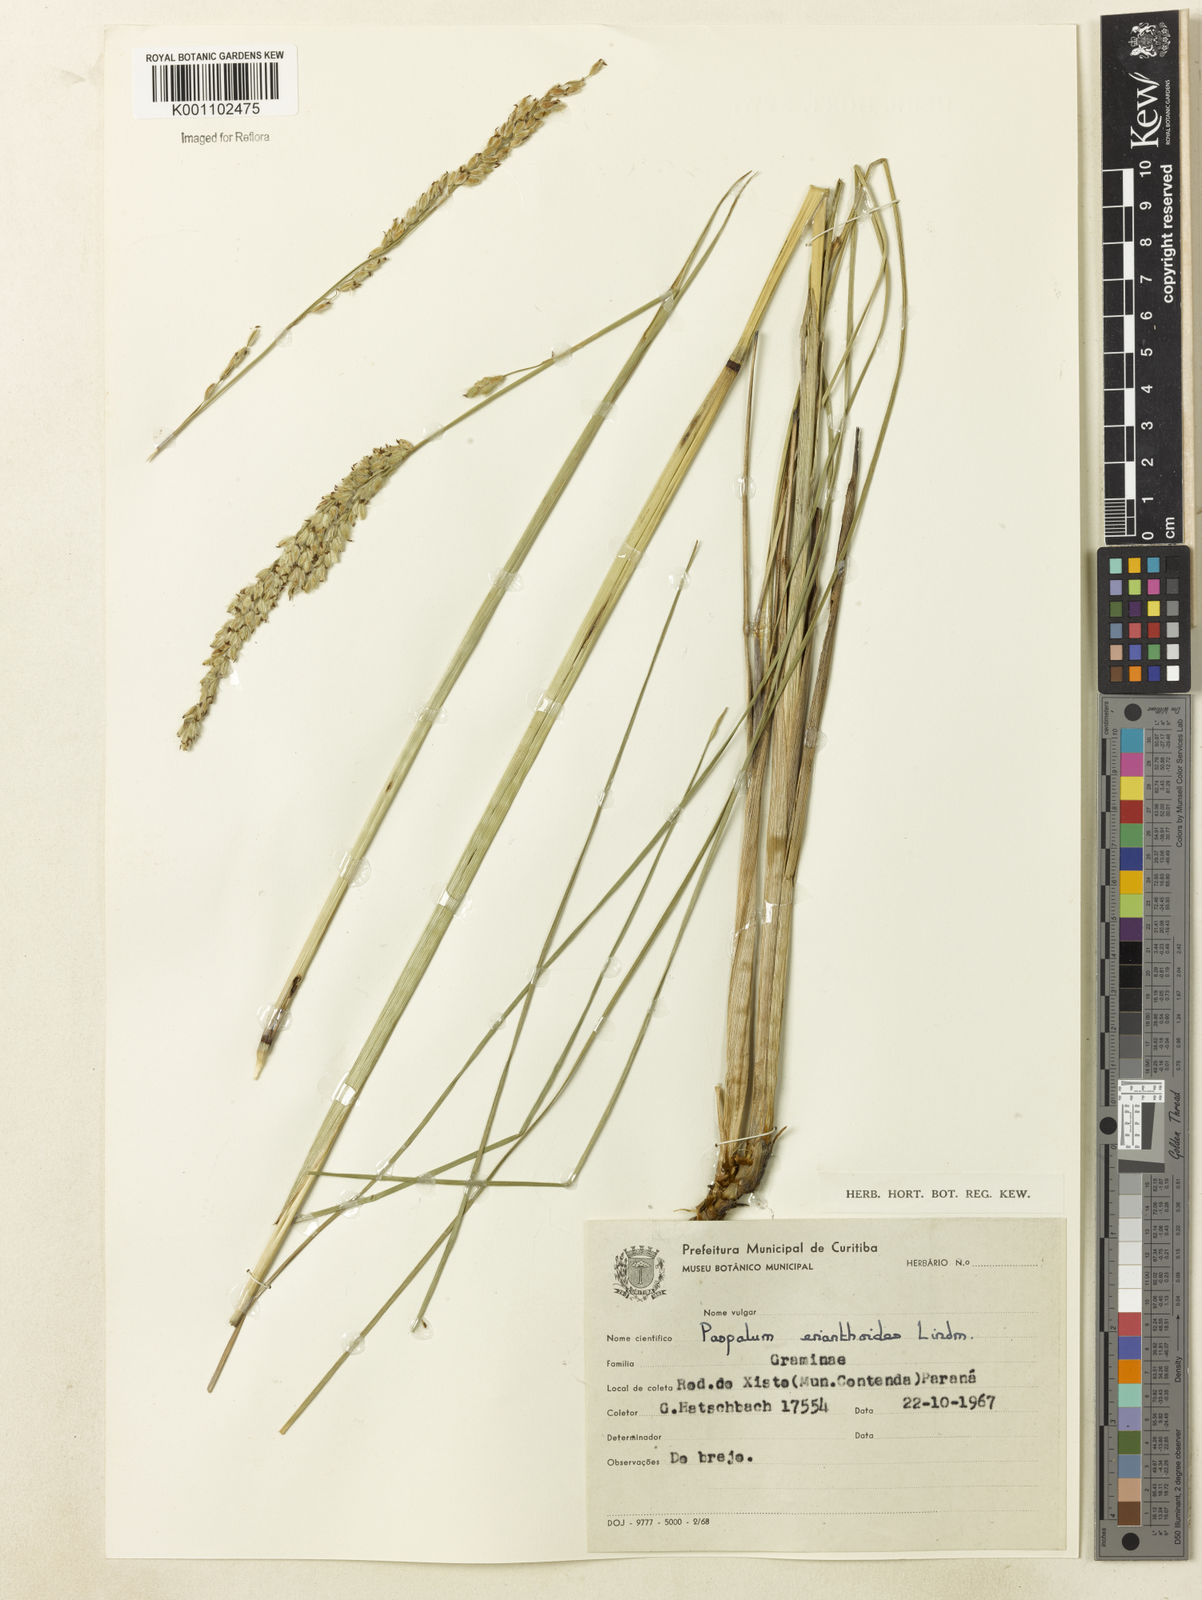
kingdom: Plantae
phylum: Tracheophyta
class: Liliopsida
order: Poales
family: Poaceae
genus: Paspalum
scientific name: Paspalum erianthoides
